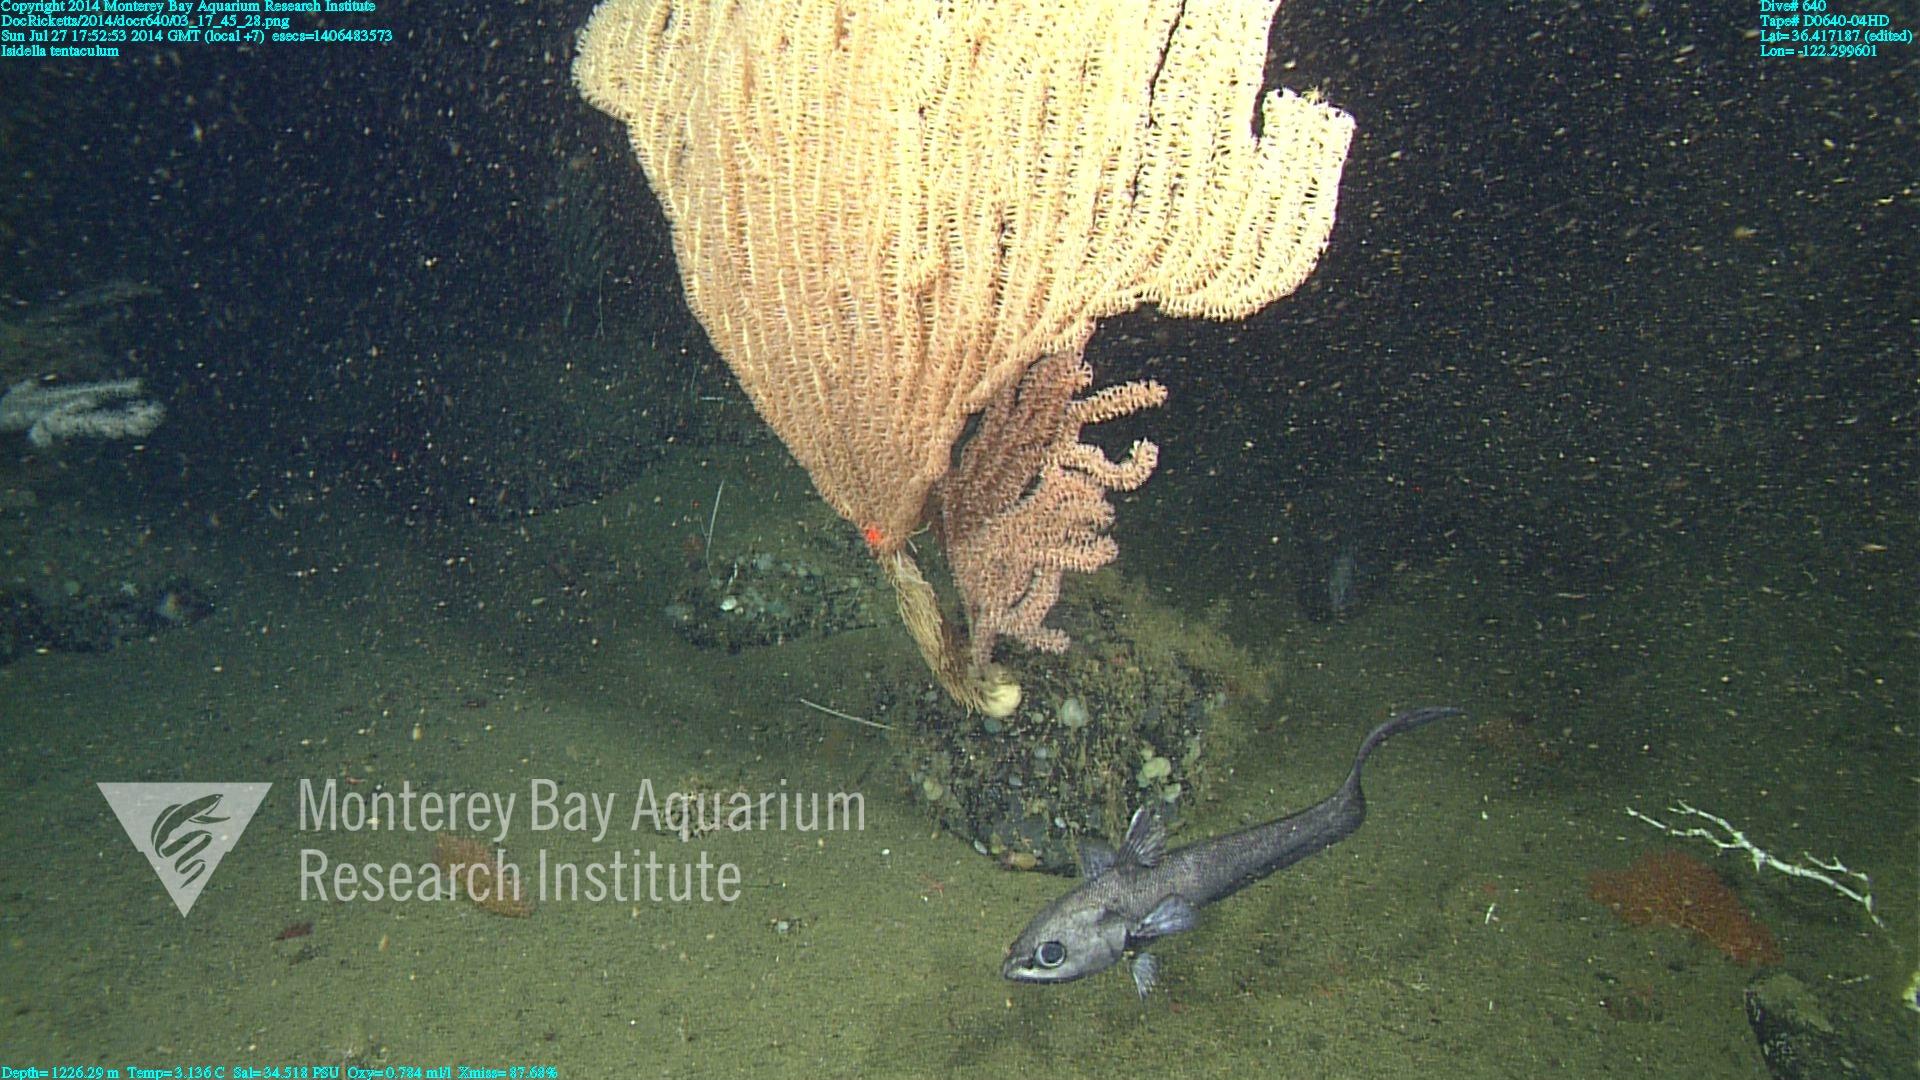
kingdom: Animalia
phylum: Cnidaria
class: Anthozoa
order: Scleralcyonacea
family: Keratoisididae
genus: Isidella
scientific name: Isidella tentaculum
